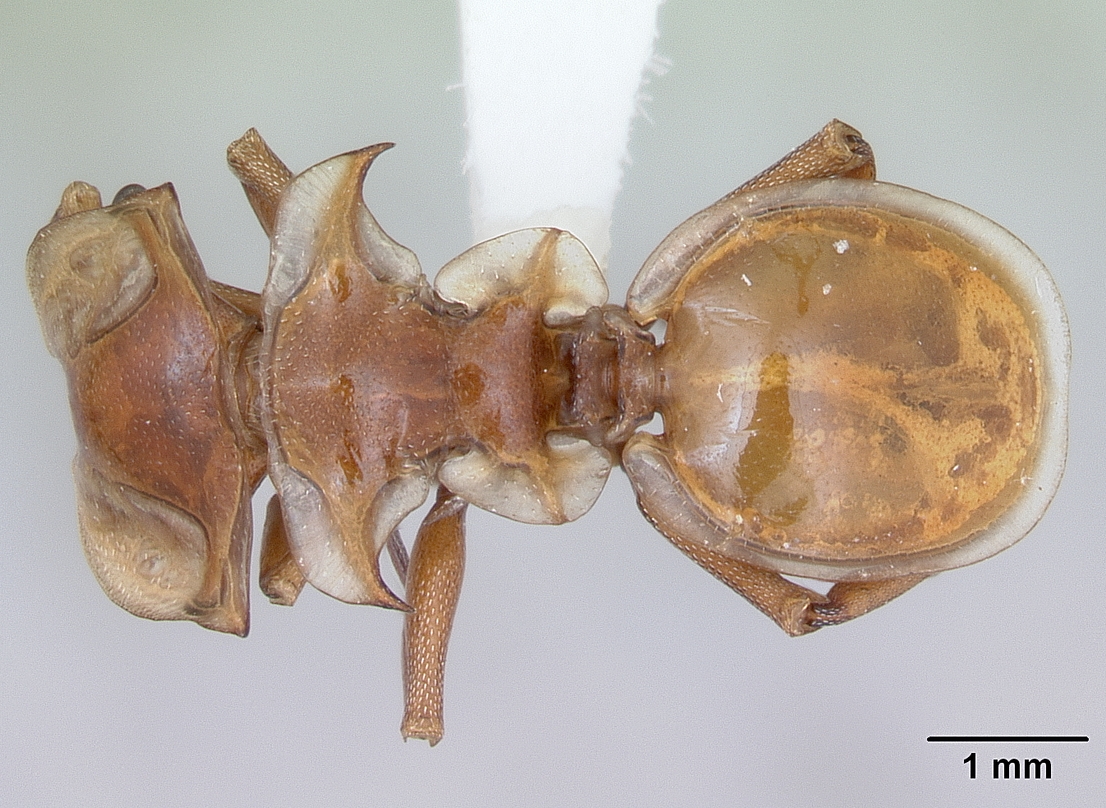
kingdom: Animalia
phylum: Arthropoda
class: Insecta
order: Hymenoptera
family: Formicidae
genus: Cephalotes
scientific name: Cephalotes clypeatus
